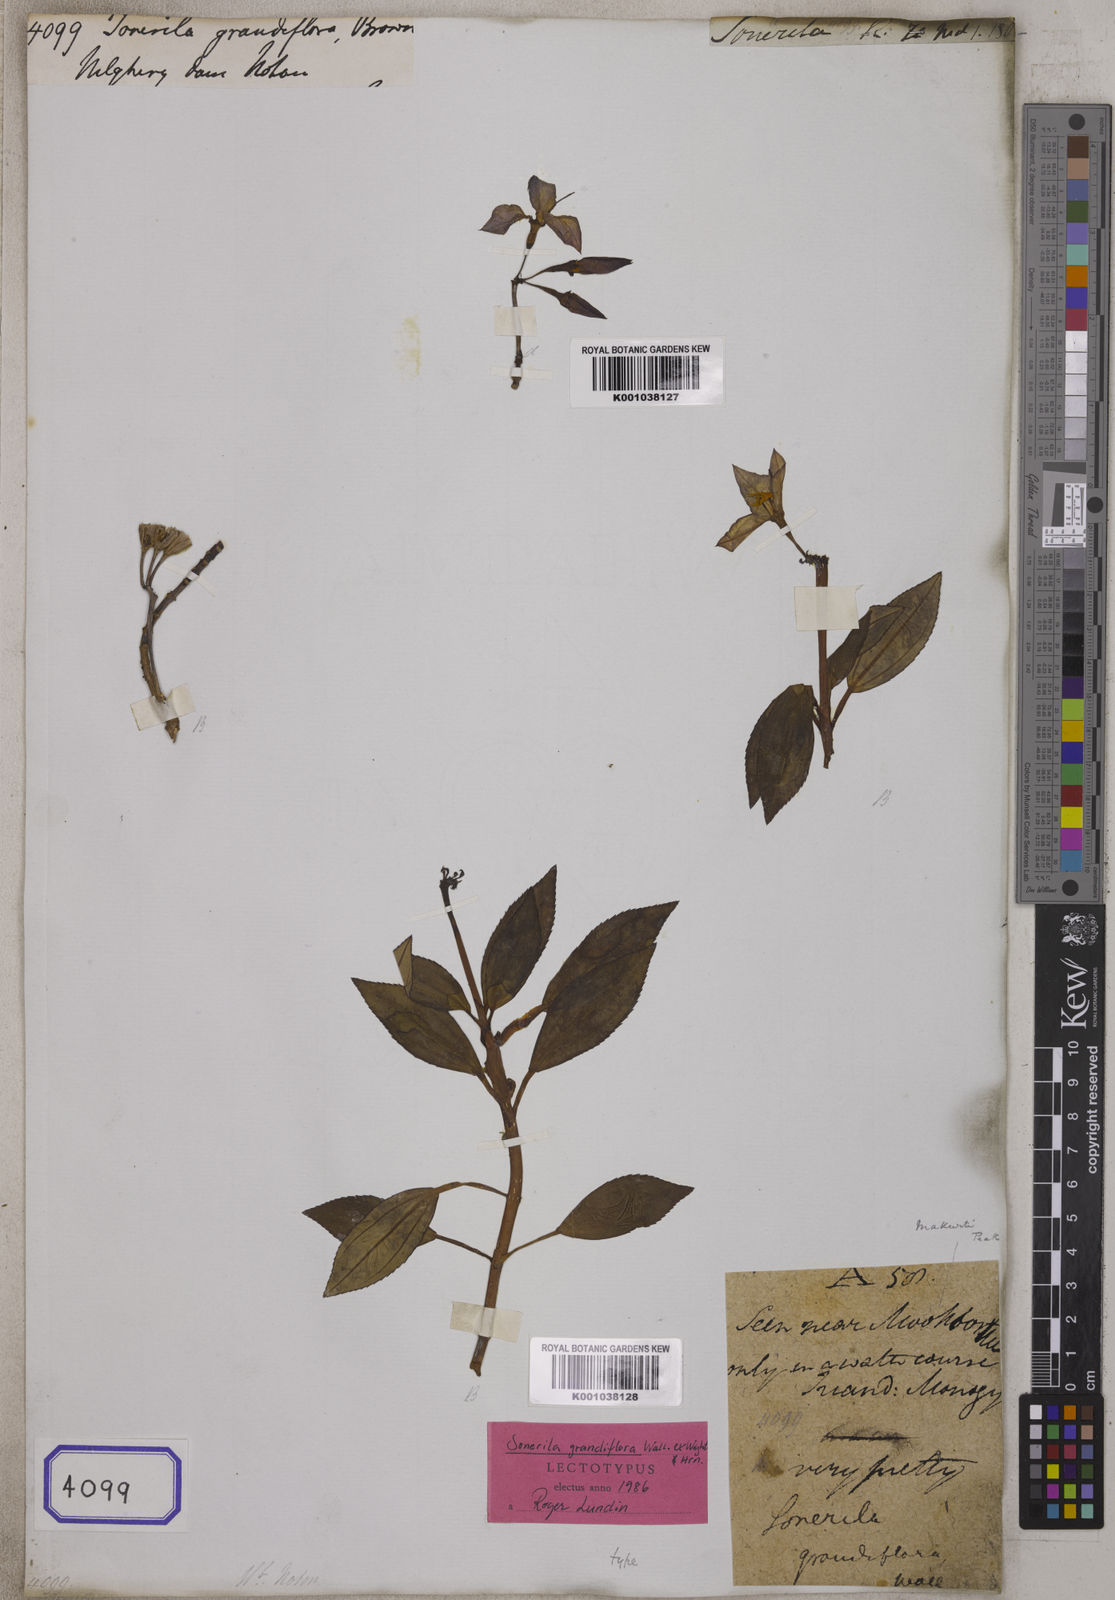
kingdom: Plantae
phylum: Tracheophyta
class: Magnoliopsida
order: Myrtales
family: Melastomataceae
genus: Sonerila
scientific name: Sonerila grandiflora
